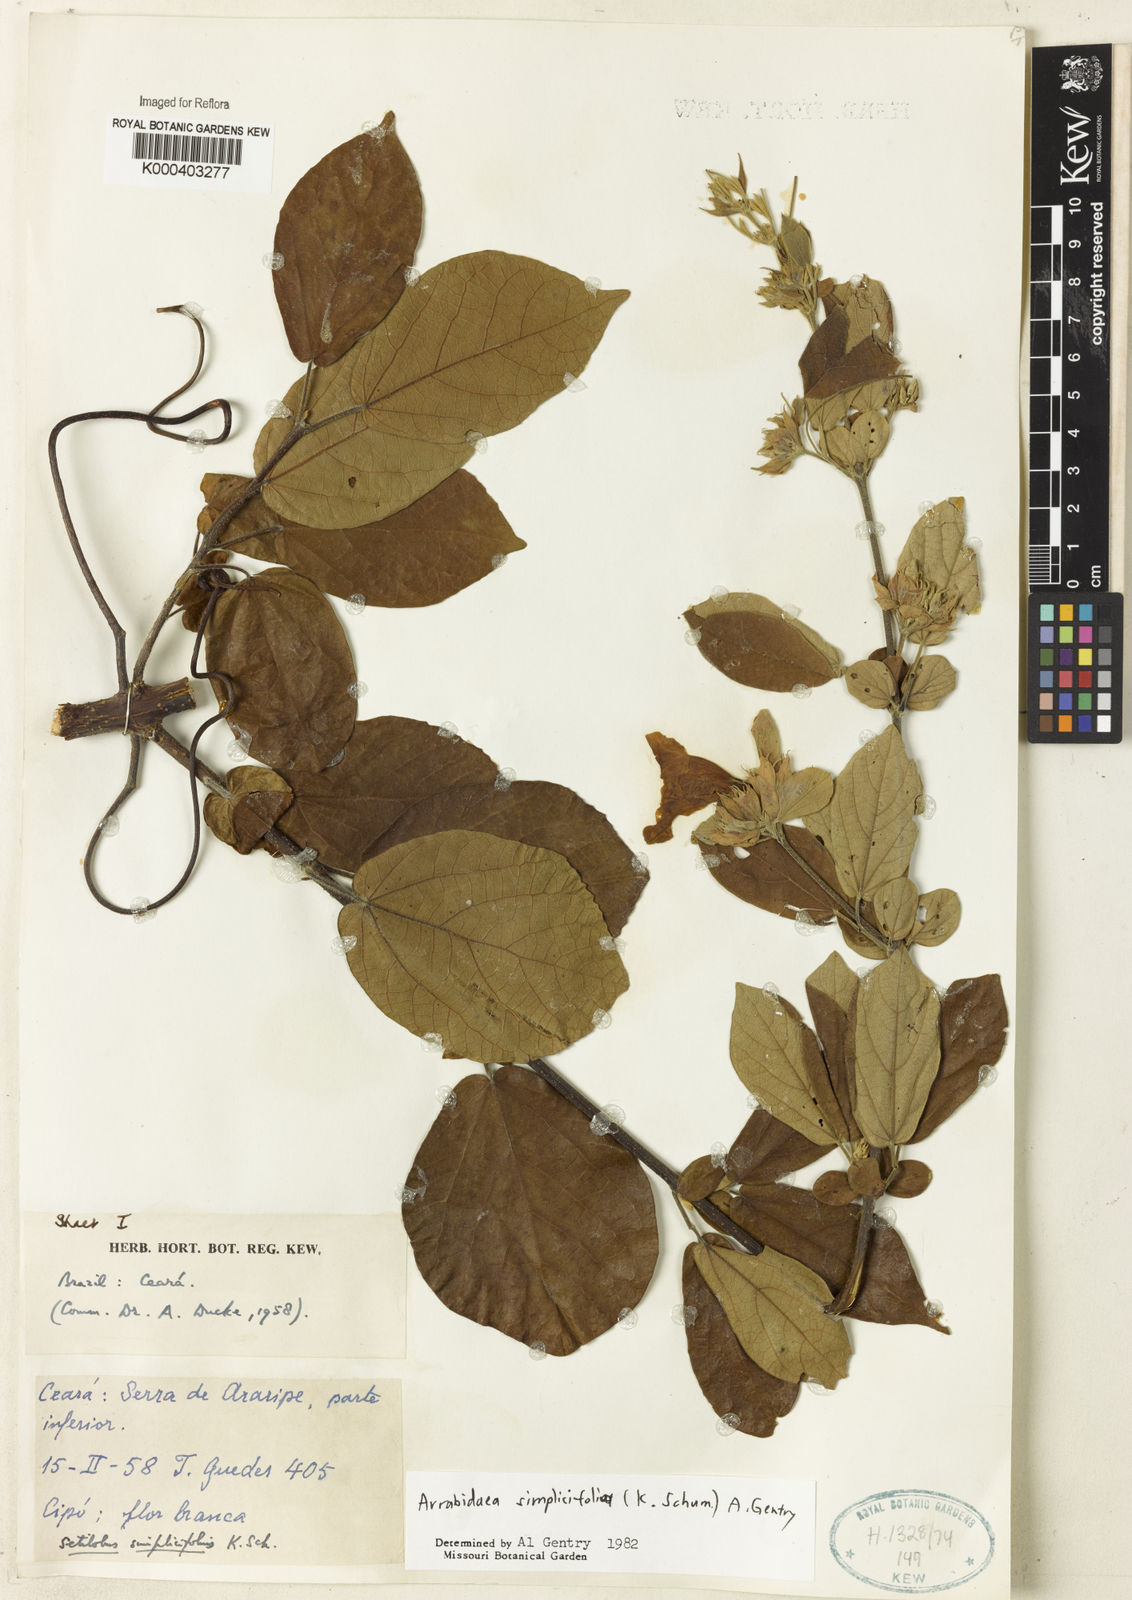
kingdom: Plantae
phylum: Tracheophyta
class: Magnoliopsida
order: Rosales
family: Rhamnaceae
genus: Arrabidaea
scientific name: Arrabidaea
